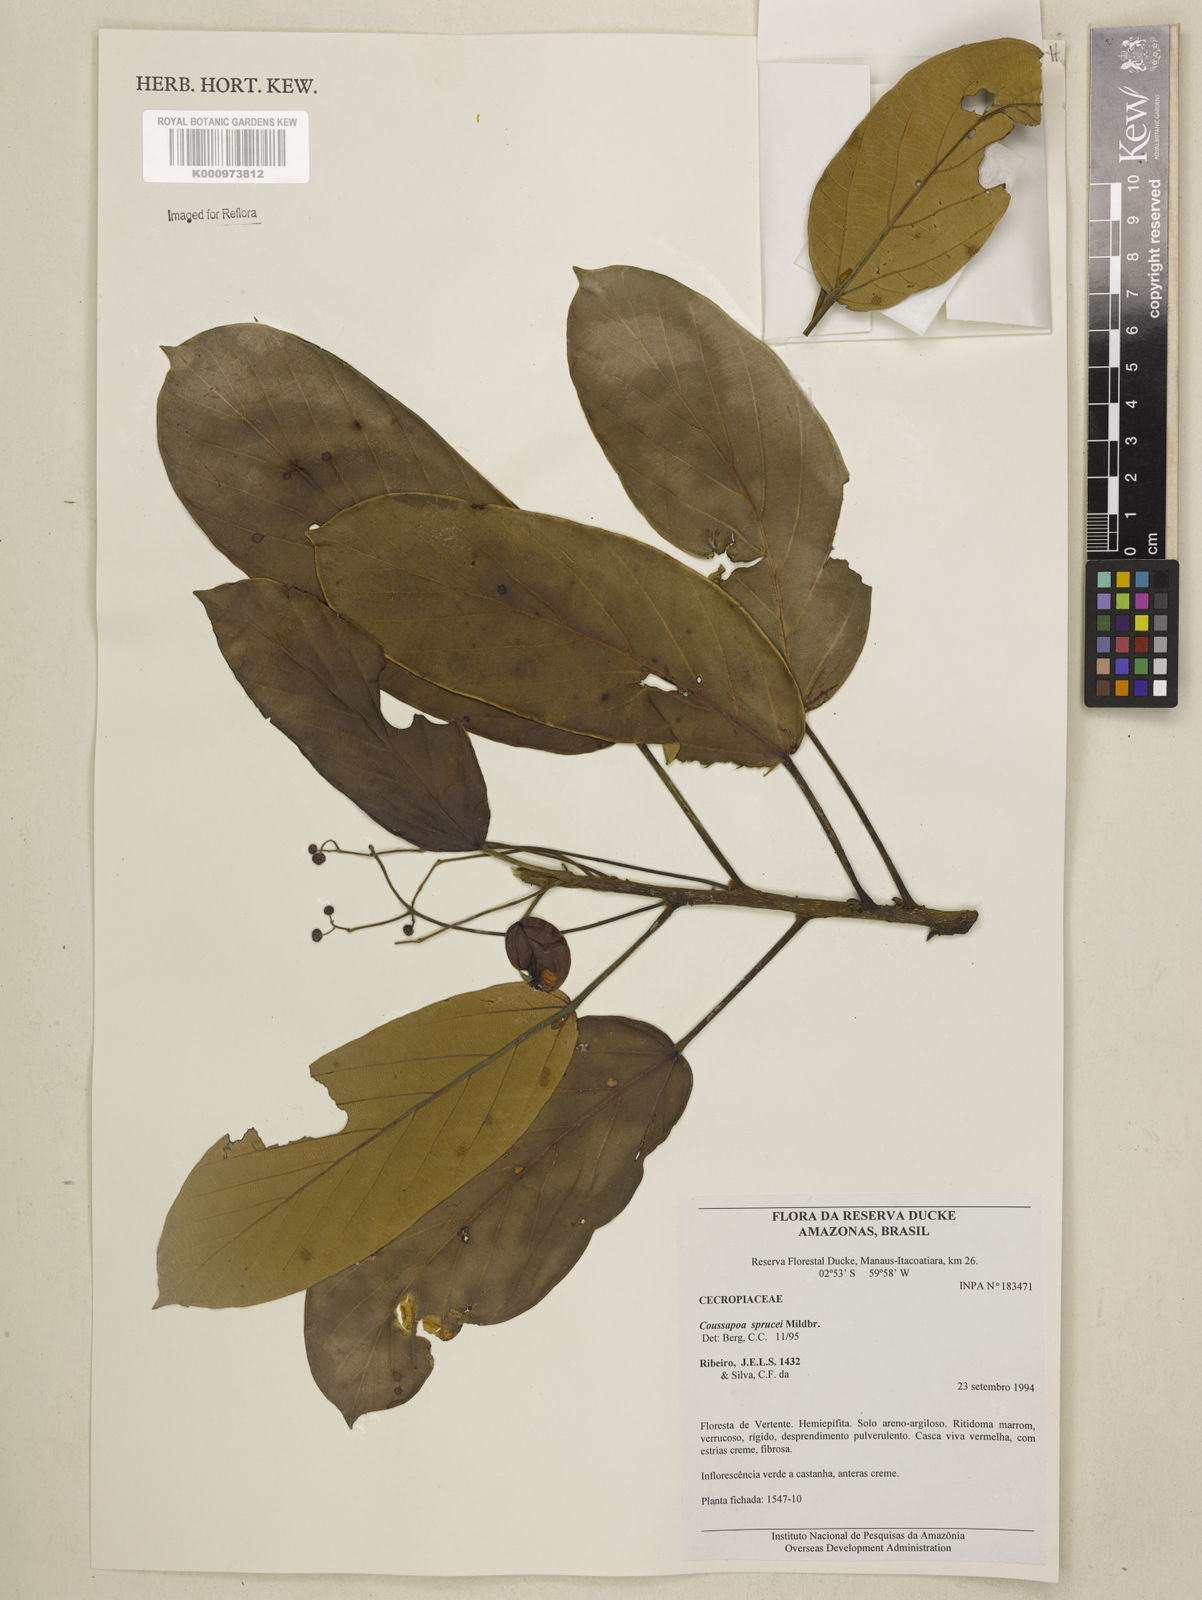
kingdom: Plantae
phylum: Tracheophyta
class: Magnoliopsida
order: Rosales
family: Urticaceae
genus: Coussapoa
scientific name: Coussapoa sprucei
